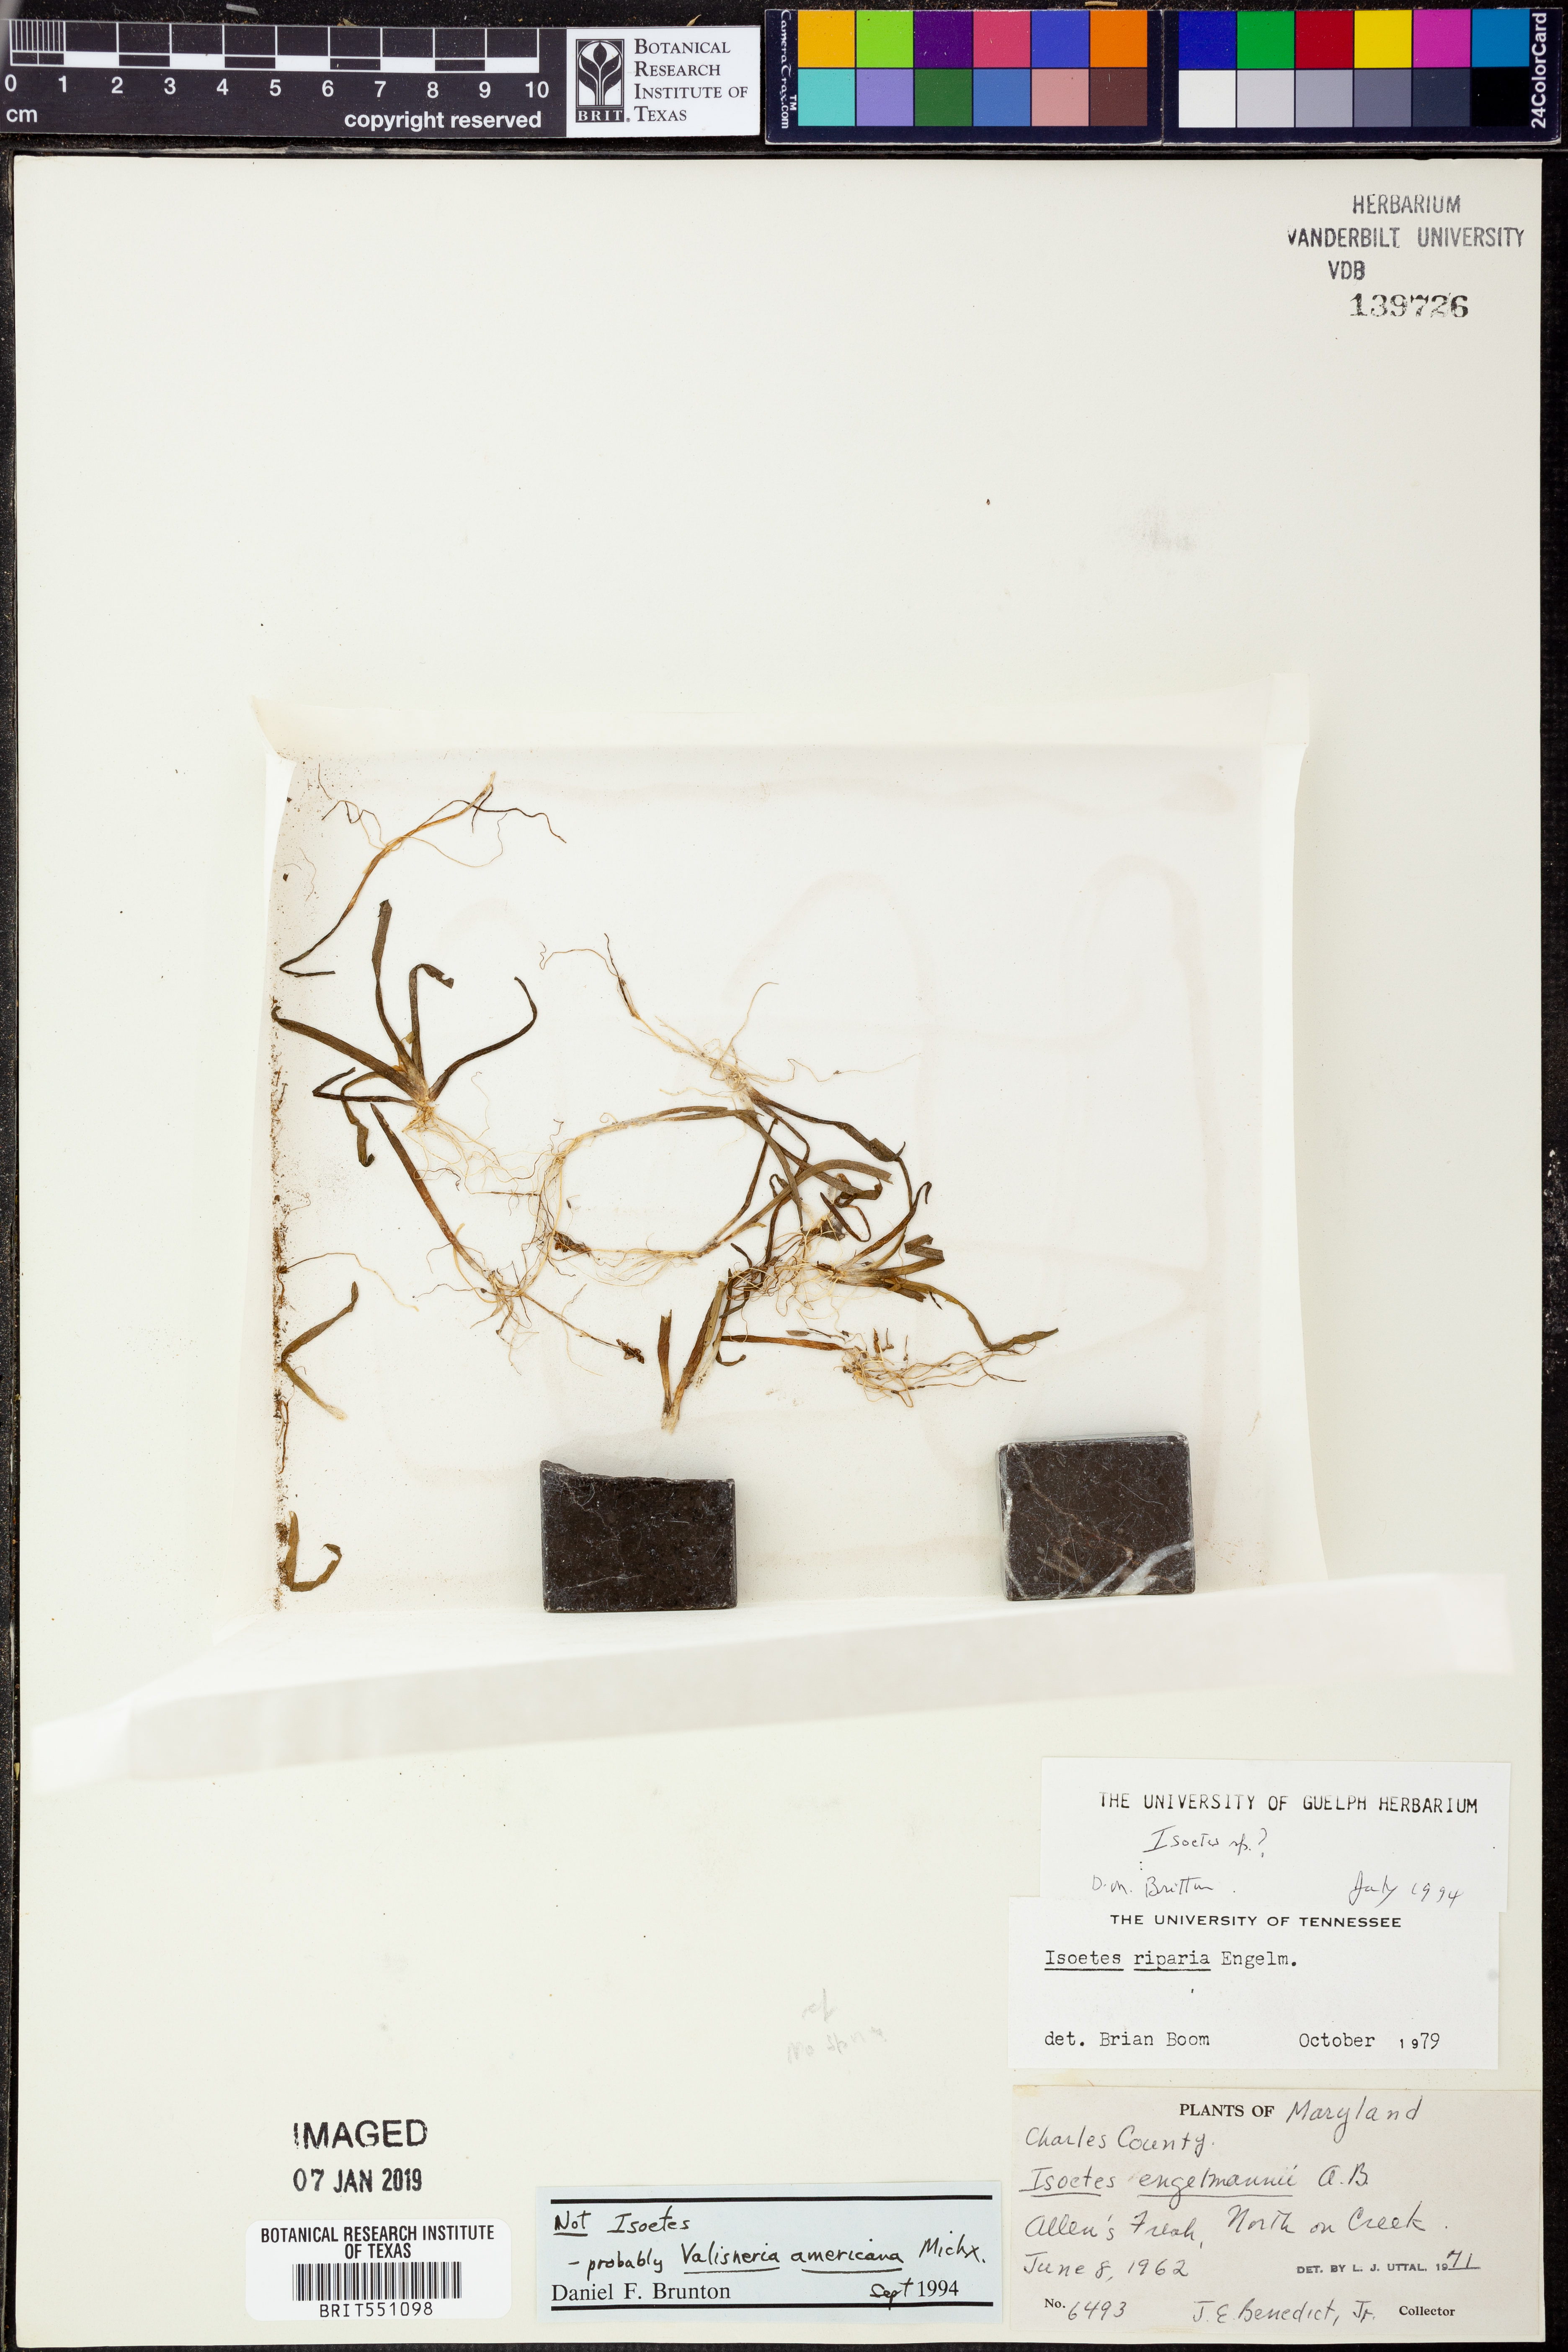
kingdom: Plantae
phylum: Tracheophyta
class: Liliopsida
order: Alismatales
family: Hydrocharitaceae
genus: Vallisneria
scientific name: Vallisneria americana
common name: American eelgrass
